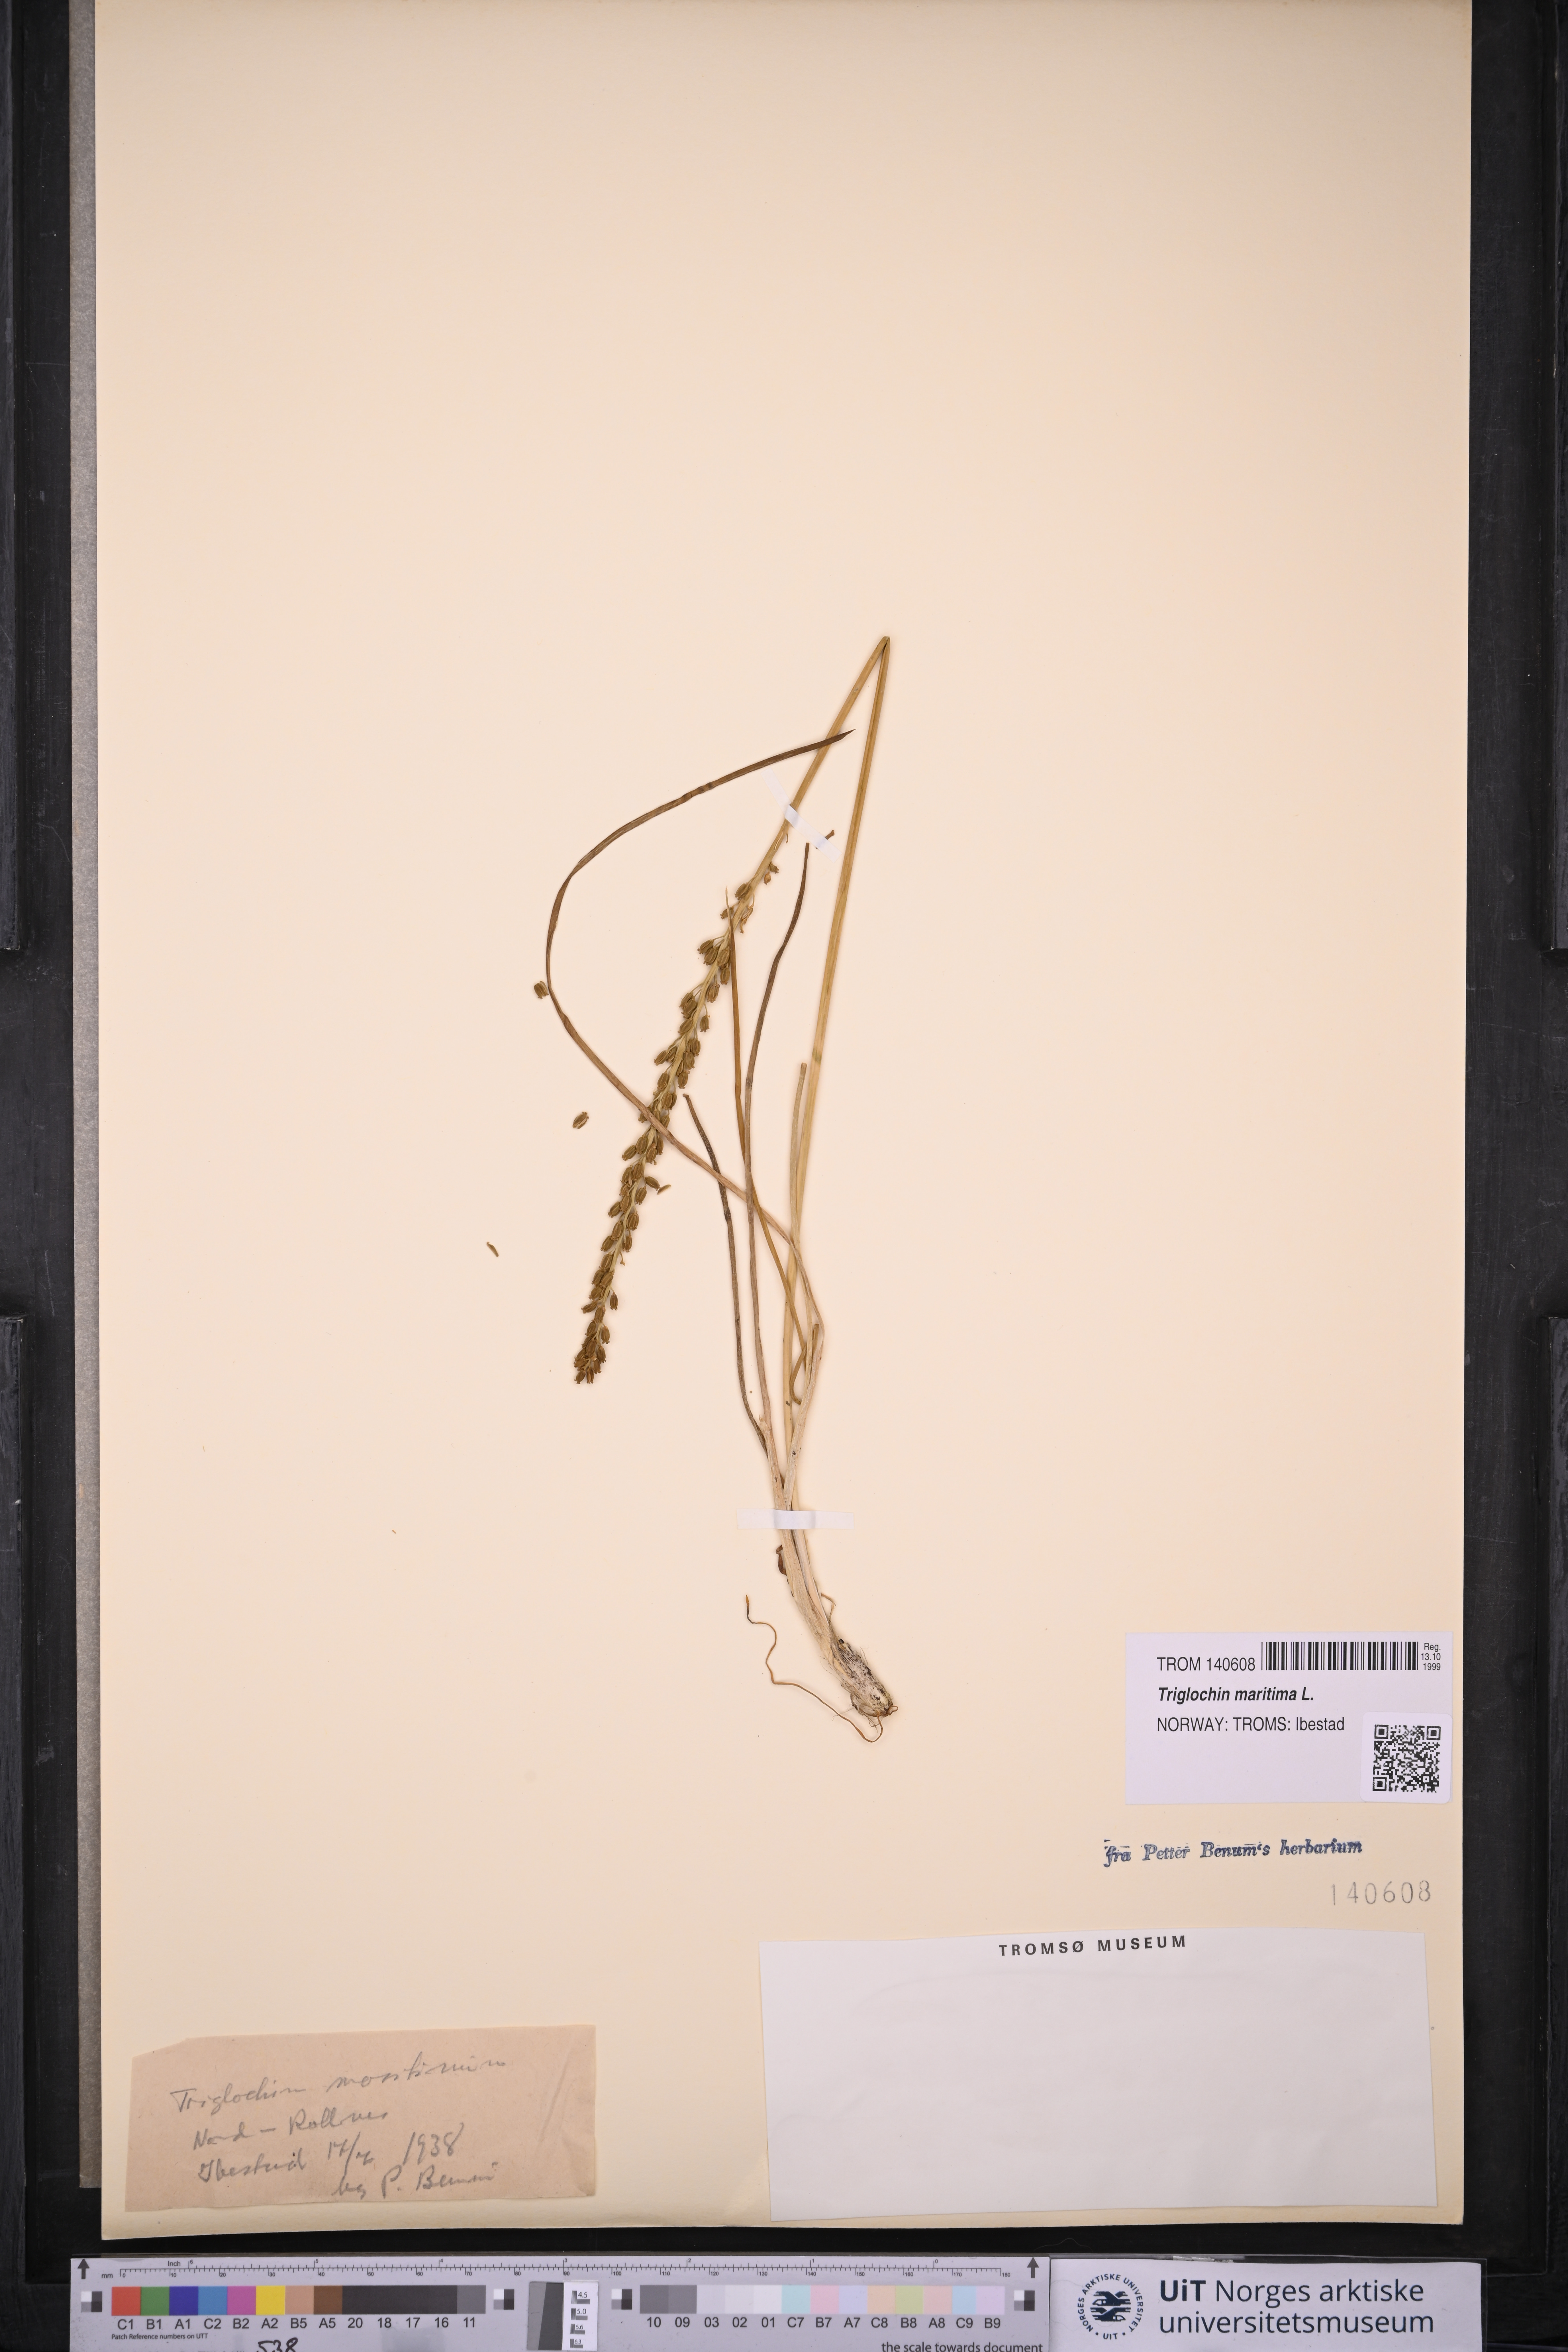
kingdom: Plantae
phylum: Tracheophyta
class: Liliopsida
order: Alismatales
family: Juncaginaceae
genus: Triglochin
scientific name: Triglochin maritima
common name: Sea arrowgrass
